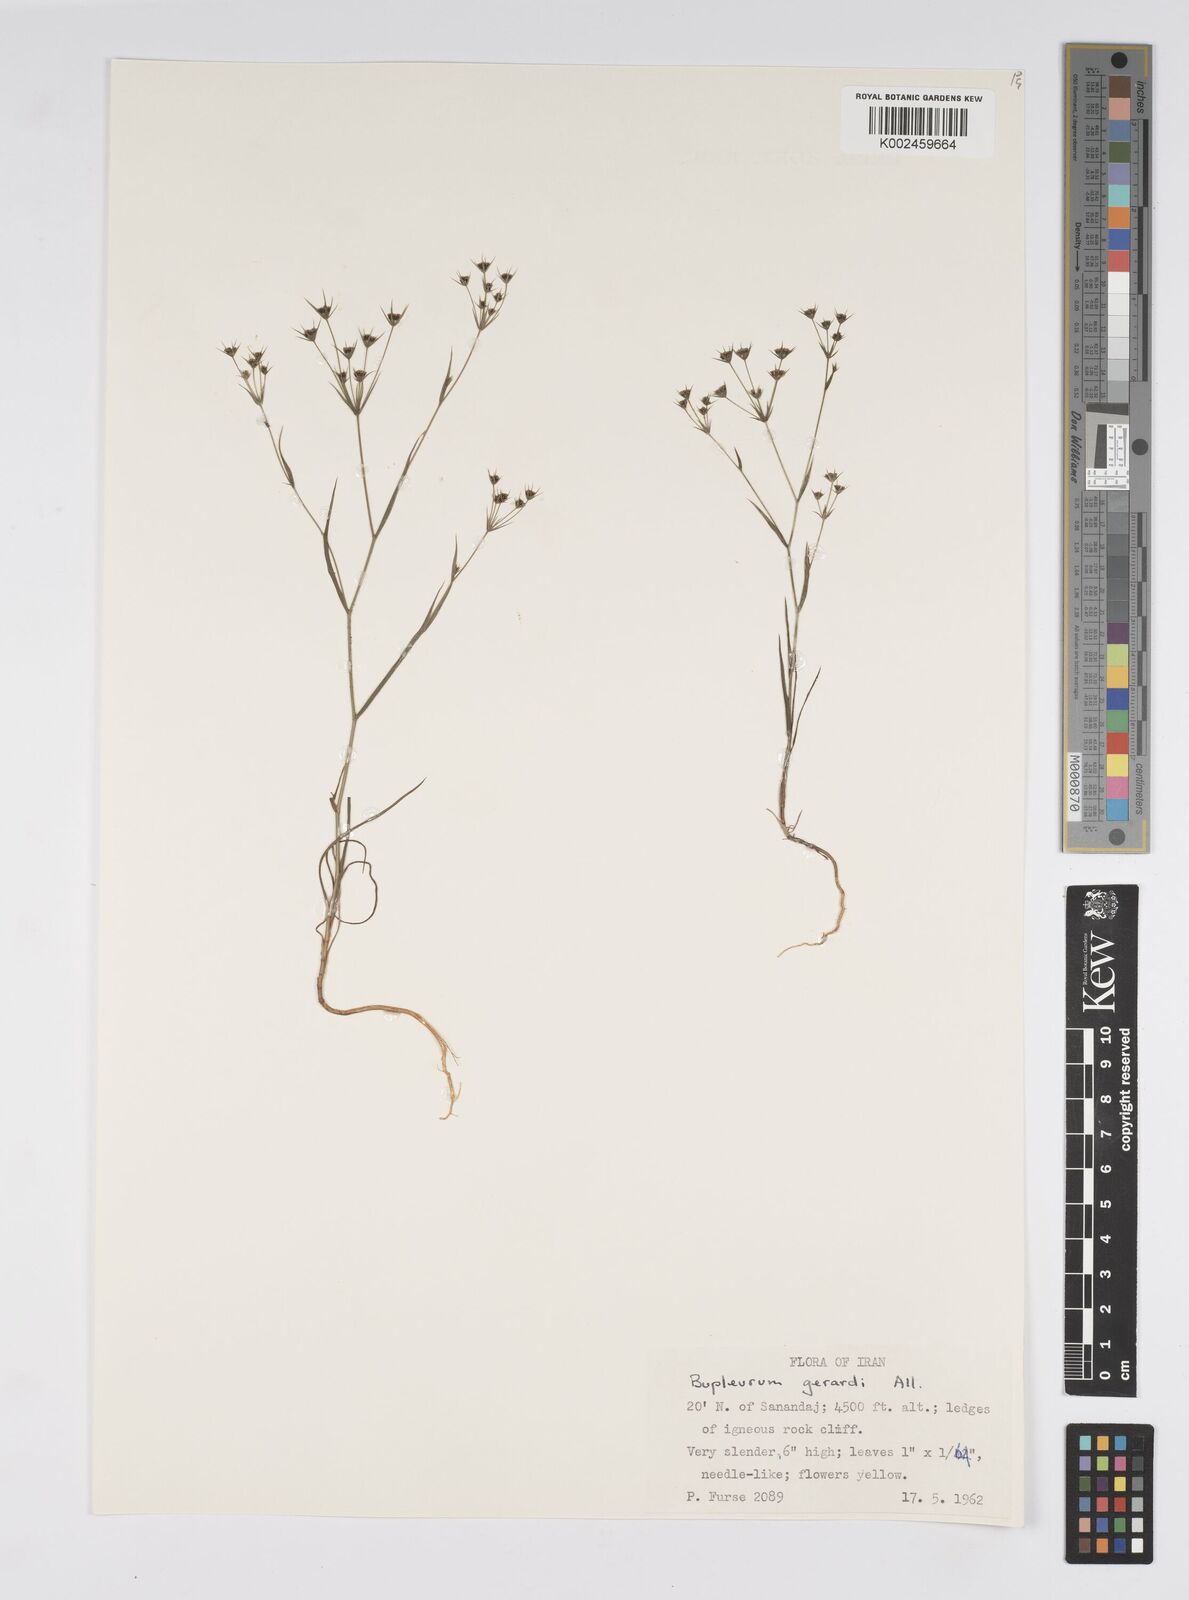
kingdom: Plantae
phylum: Tracheophyta
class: Magnoliopsida
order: Apiales
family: Apiaceae
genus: Bupleurum
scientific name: Bupleurum gerardi
